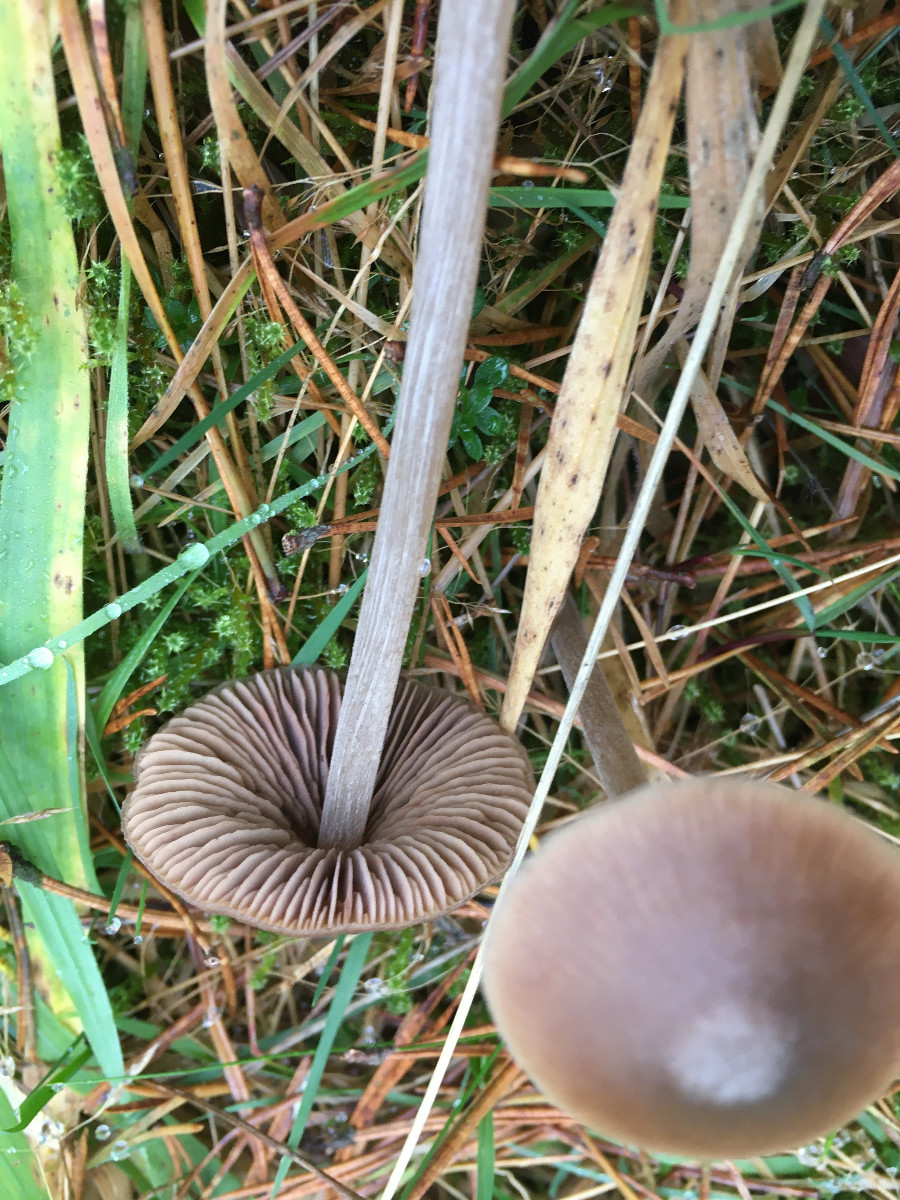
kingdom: Fungi
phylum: Basidiomycota
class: Agaricomycetes
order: Agaricales
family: Entolomataceae
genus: Entoloma
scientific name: Entoloma
